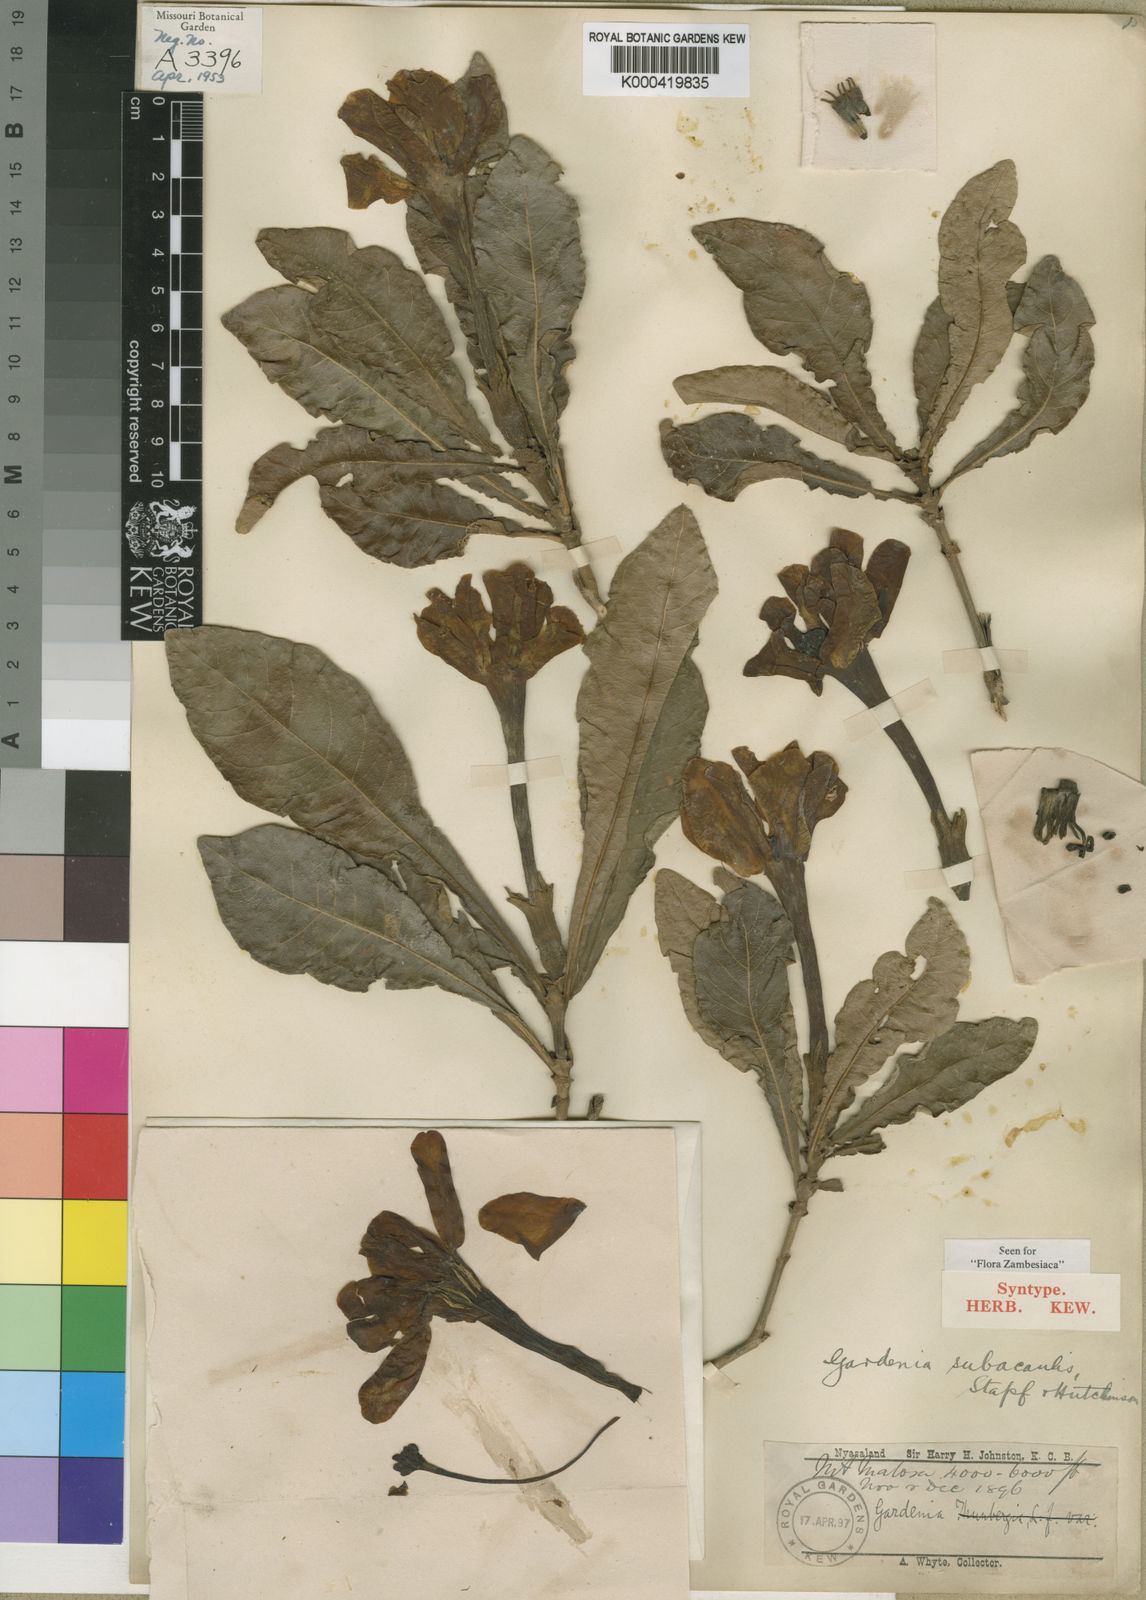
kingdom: Plantae
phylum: Tracheophyta
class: Magnoliopsida
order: Gentianales
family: Rubiaceae
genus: Gardenia
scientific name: Gardenia subacaulis
